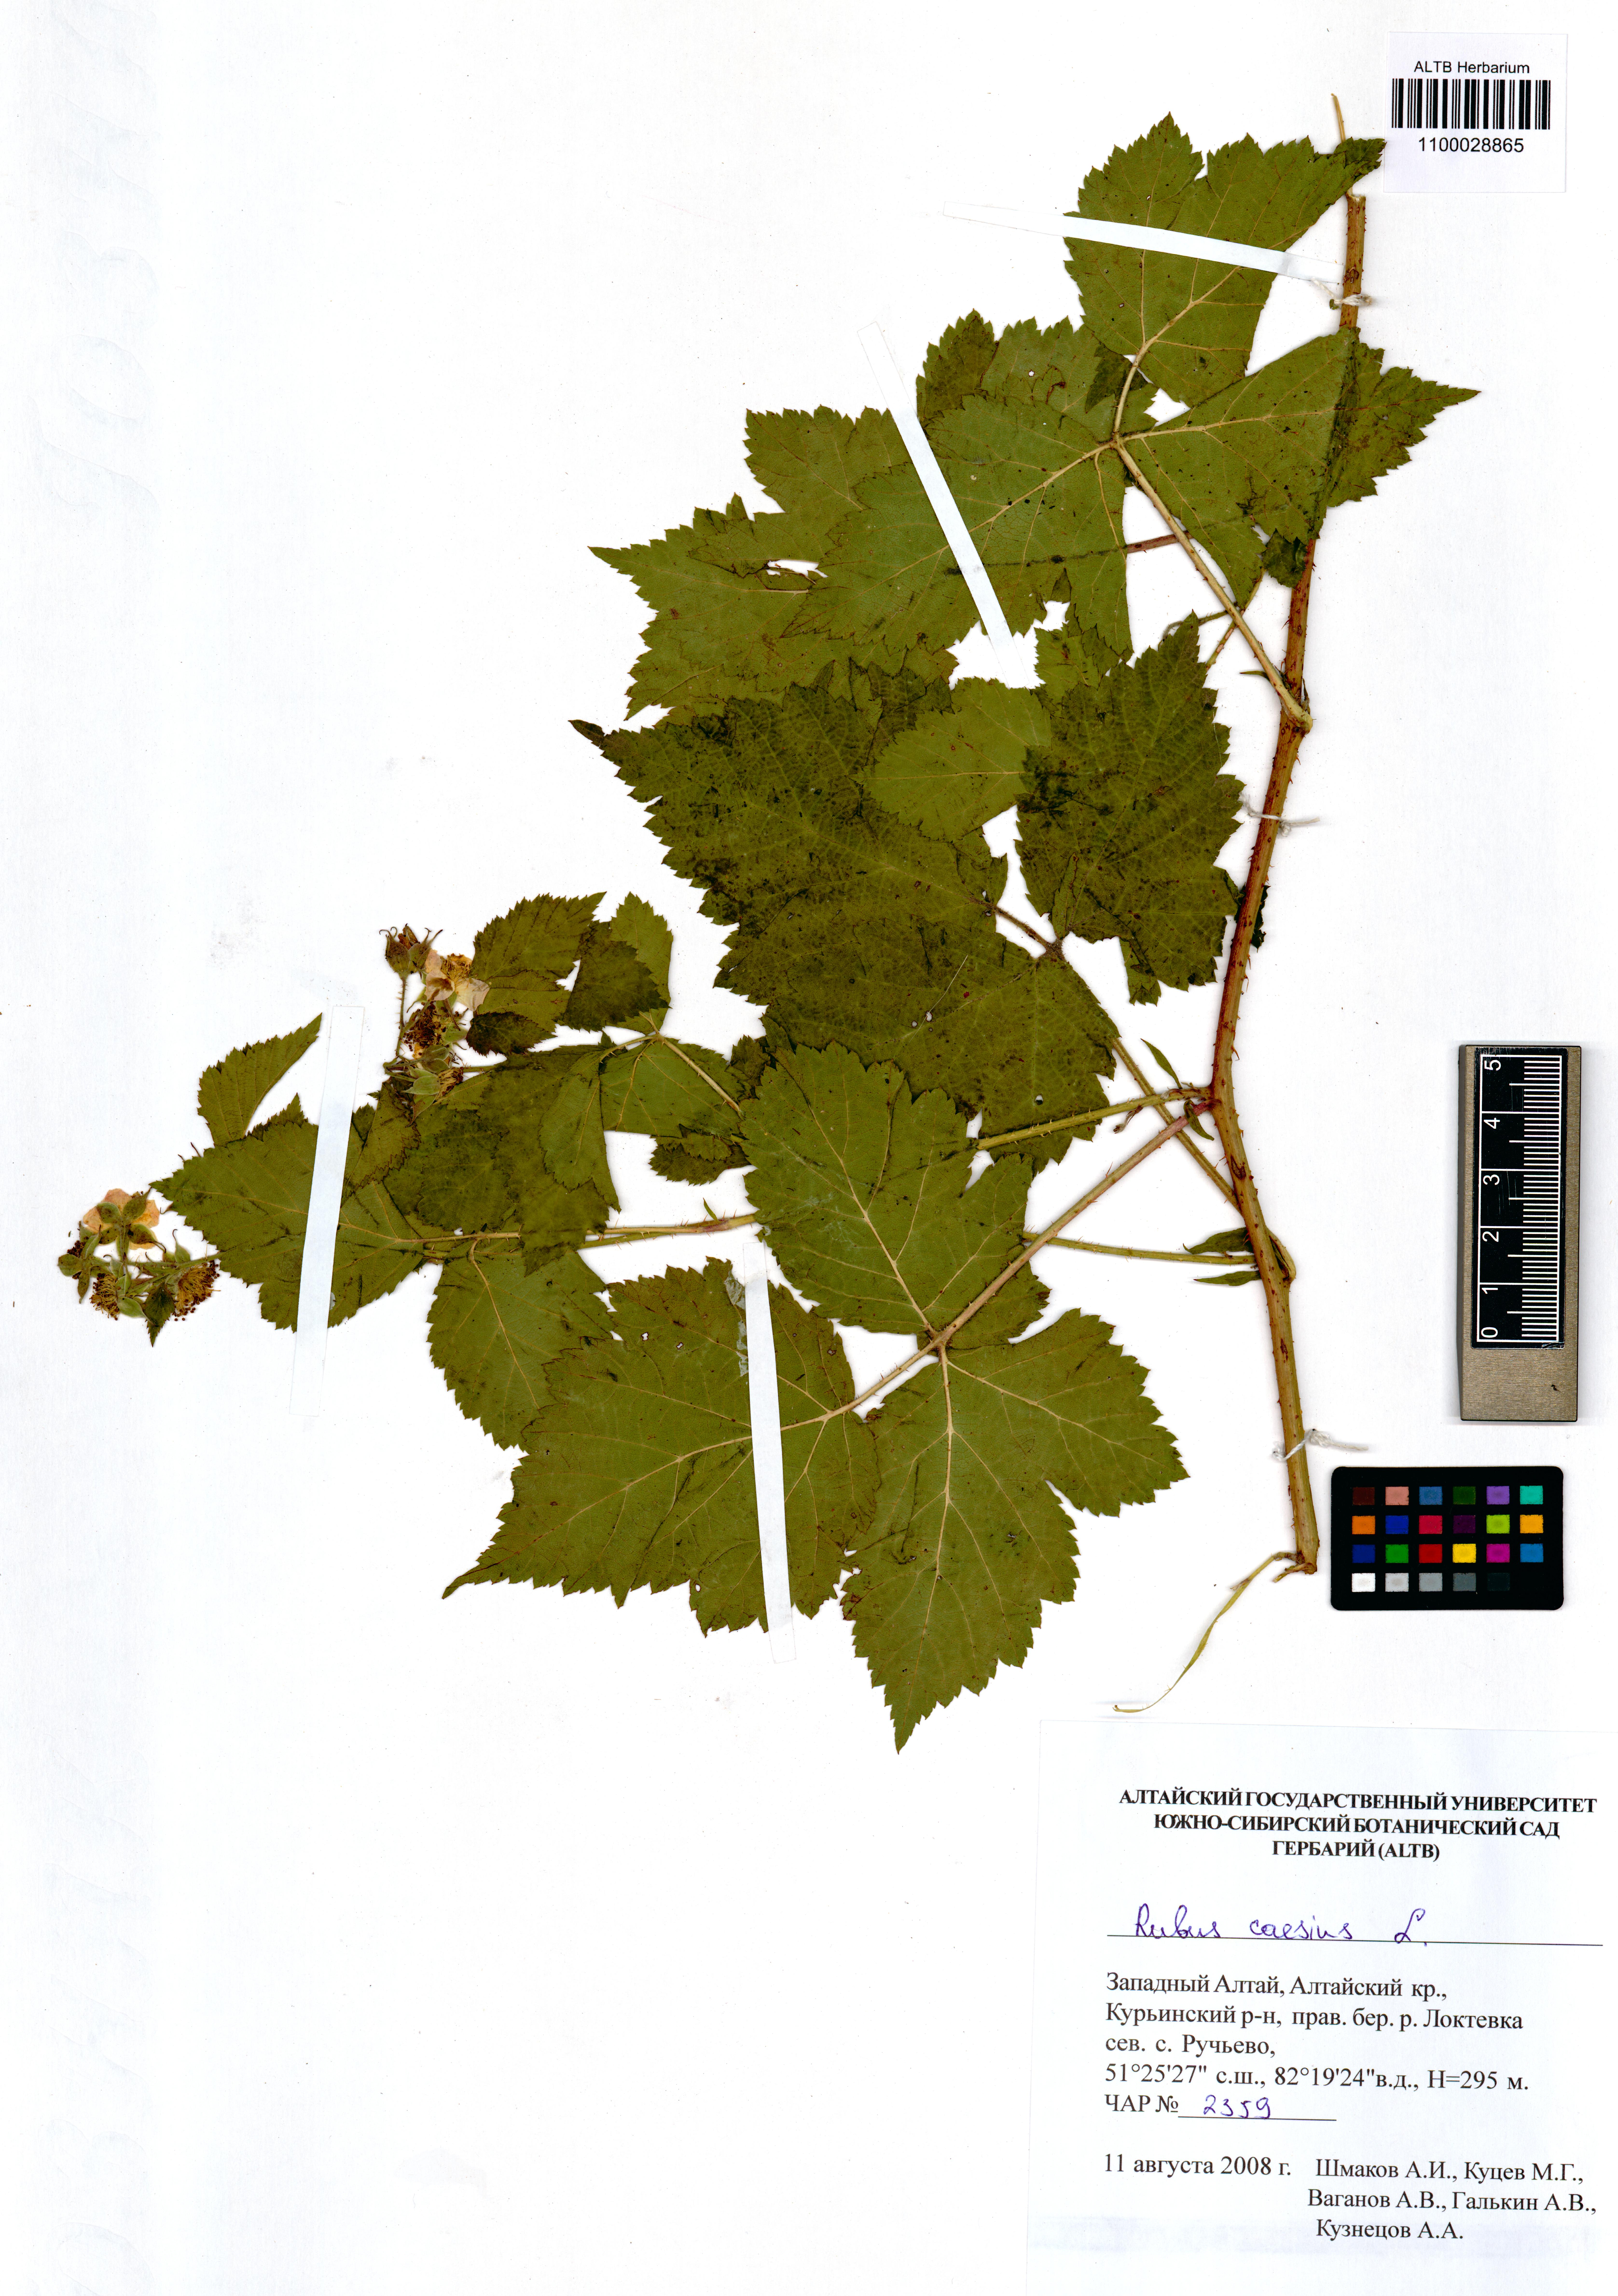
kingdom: Plantae
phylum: Tracheophyta
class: Magnoliopsida
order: Rosales
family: Rosaceae
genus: Rubus
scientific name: Rubus caesius
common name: Dewberry
